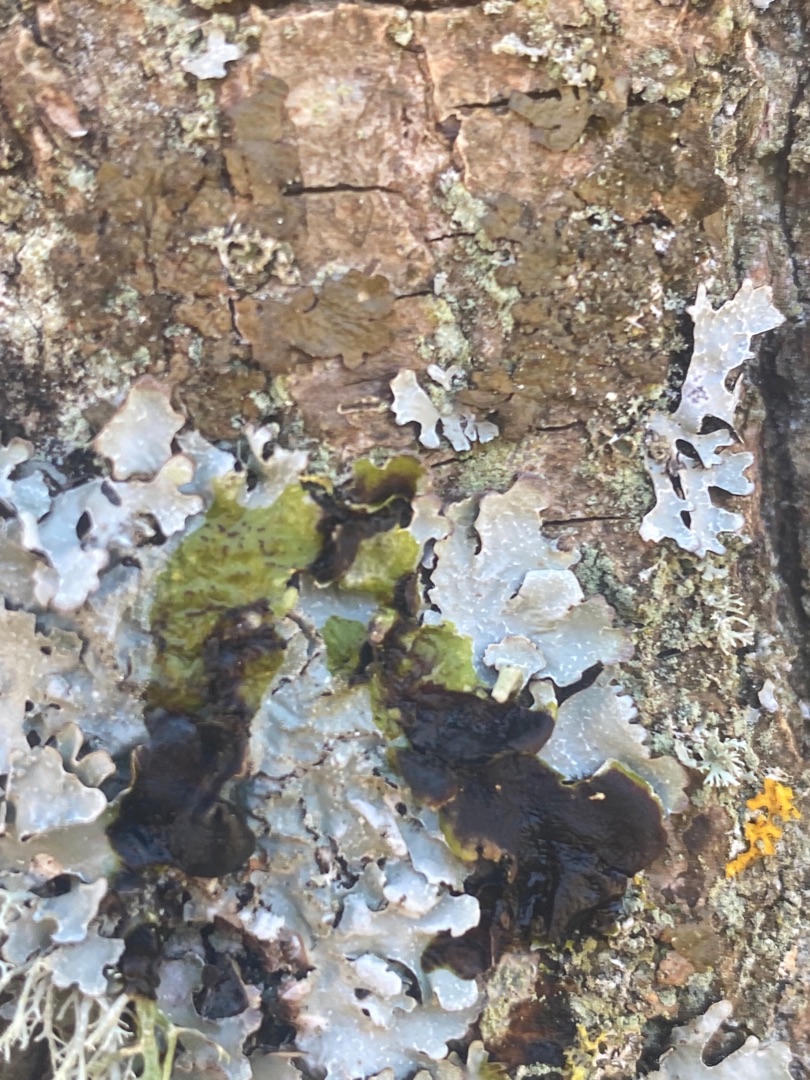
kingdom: Fungi
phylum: Ascomycota
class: Lecanoromycetes
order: Lecanorales
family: Parmeliaceae
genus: Parmelia
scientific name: Parmelia sulcata
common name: Rynket skållav
